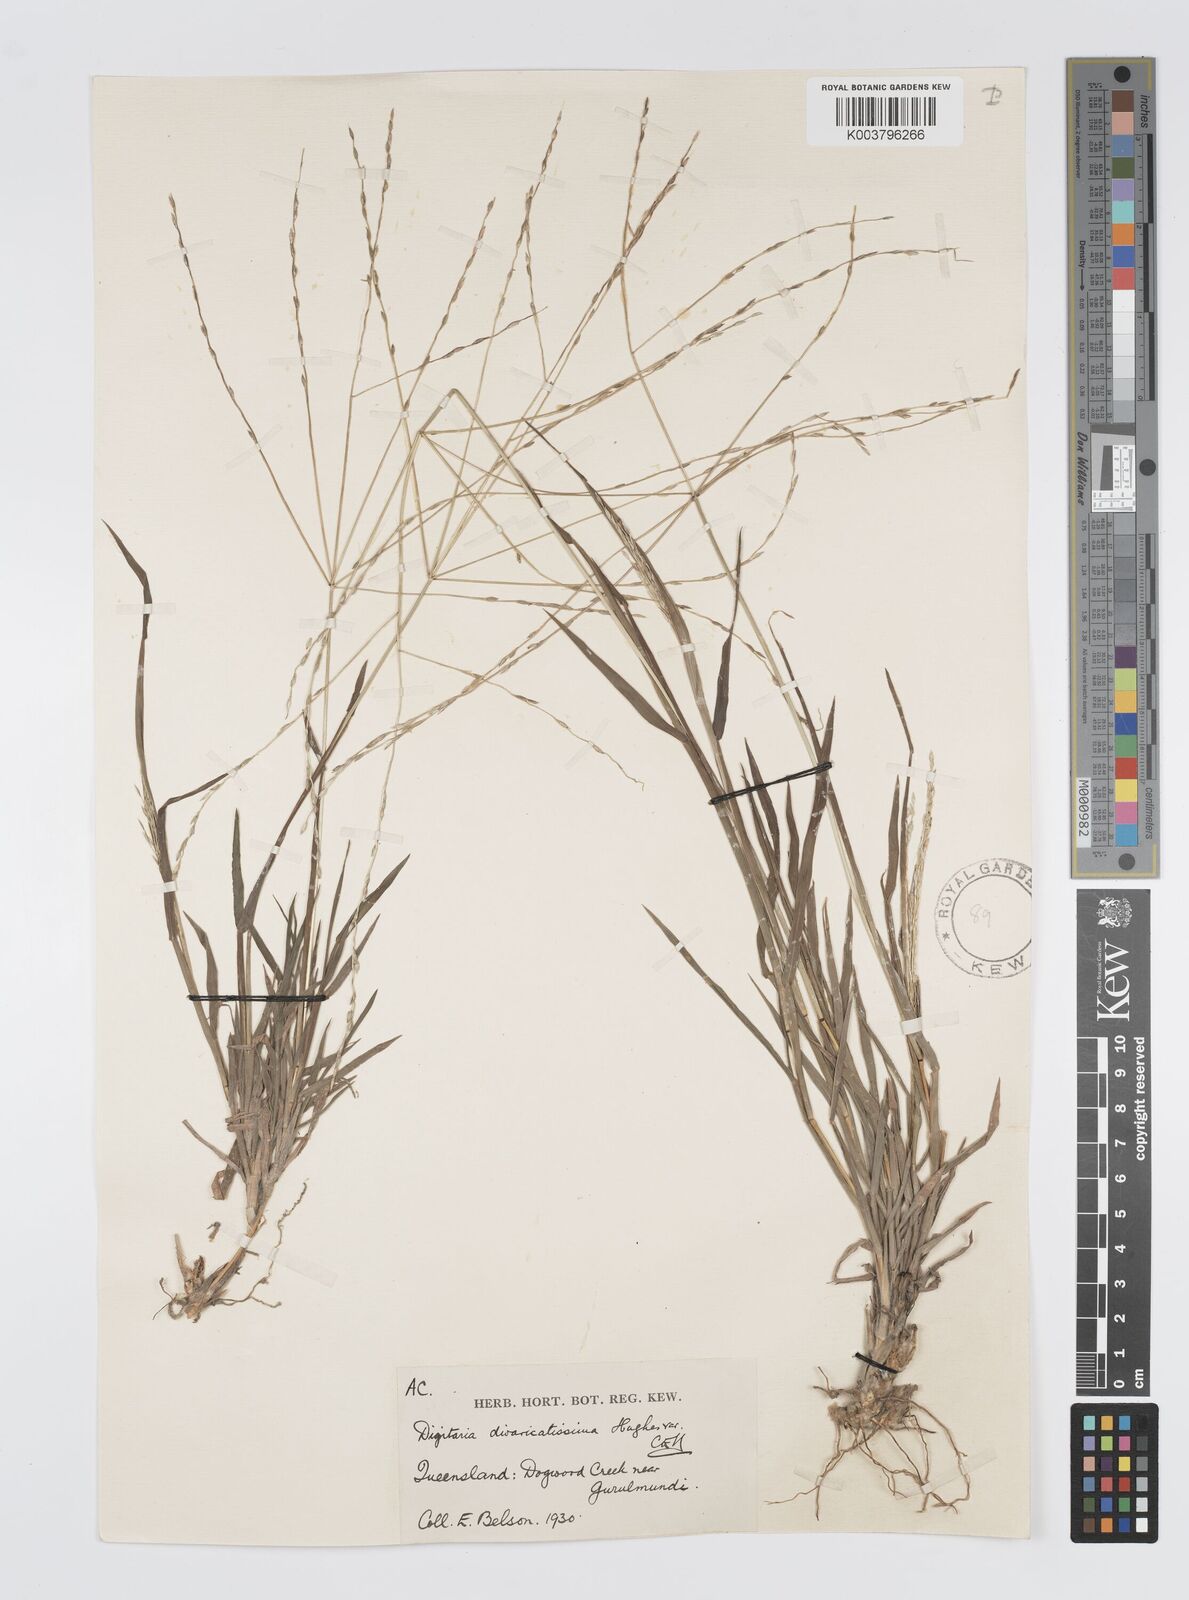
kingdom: Plantae
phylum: Tracheophyta
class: Liliopsida
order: Poales
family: Poaceae
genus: Digitaria
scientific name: Digitaria divaricatissima
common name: Crabgrass
